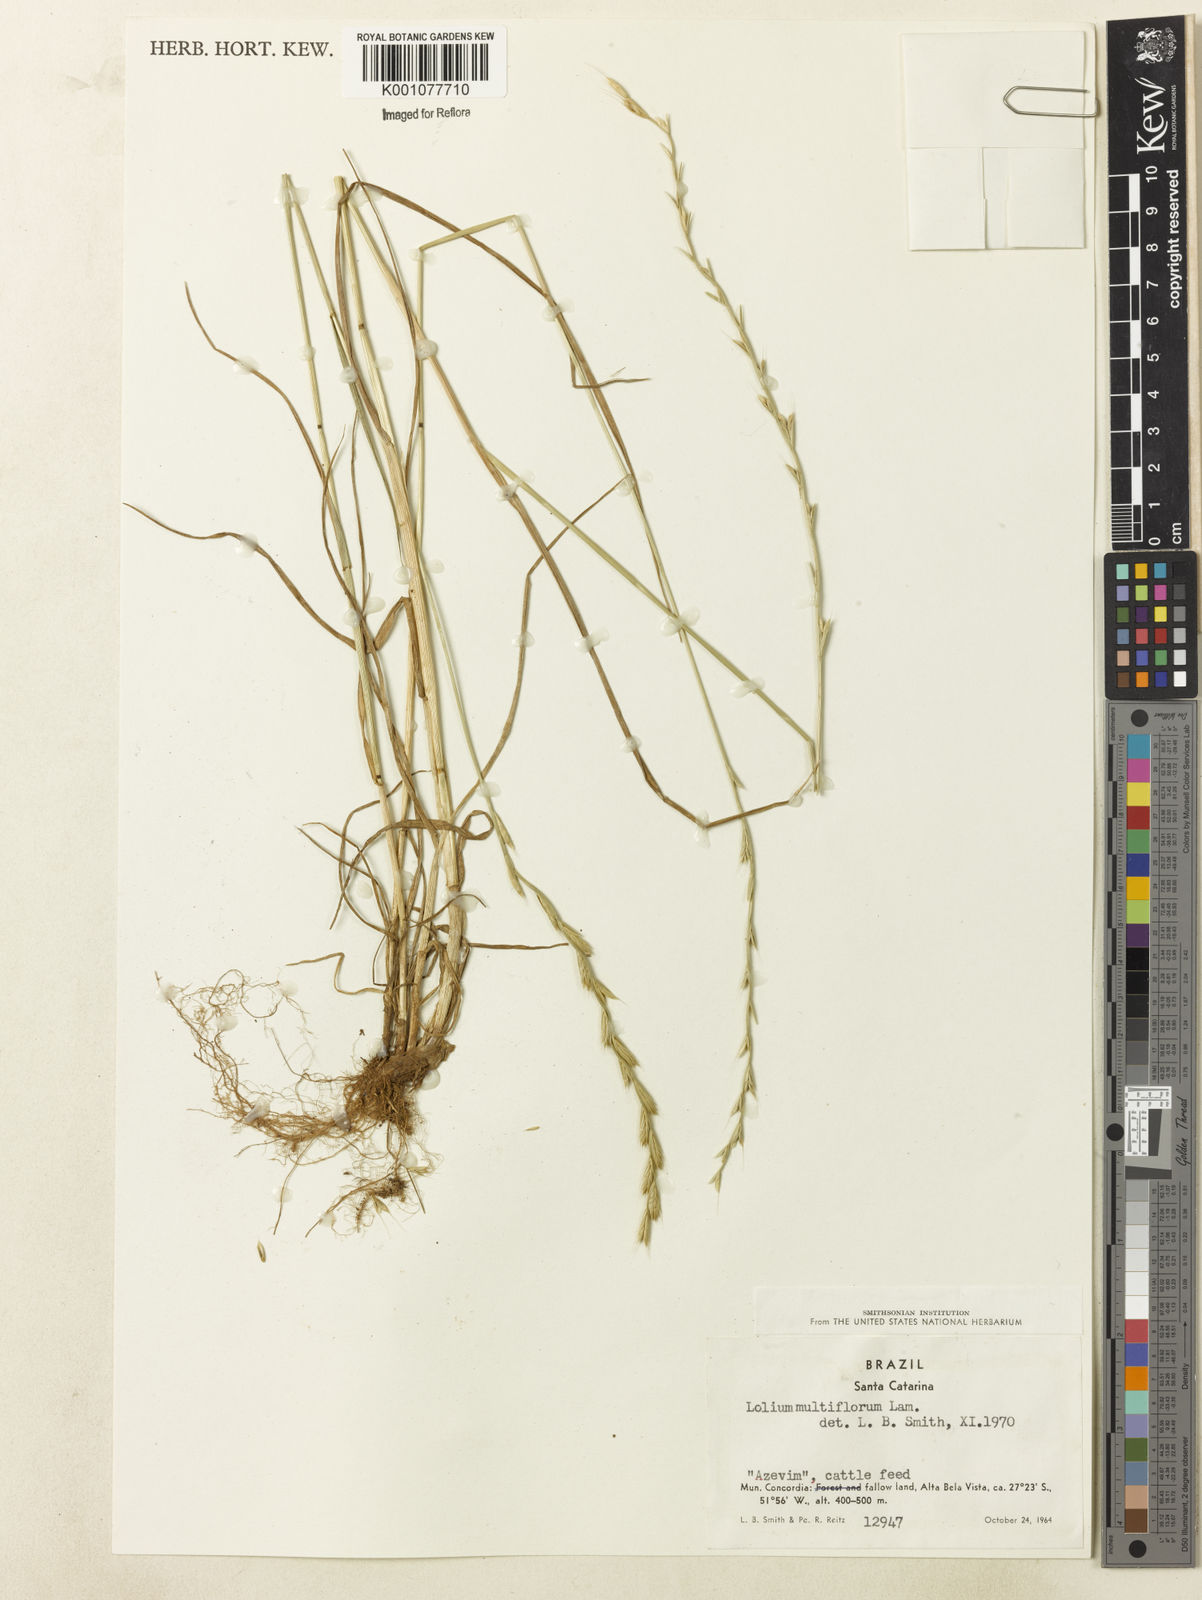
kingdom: Plantae
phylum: Tracheophyta
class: Liliopsida
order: Poales
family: Poaceae
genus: Lolium
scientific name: Lolium multiflorum
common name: Annual ryegrass
